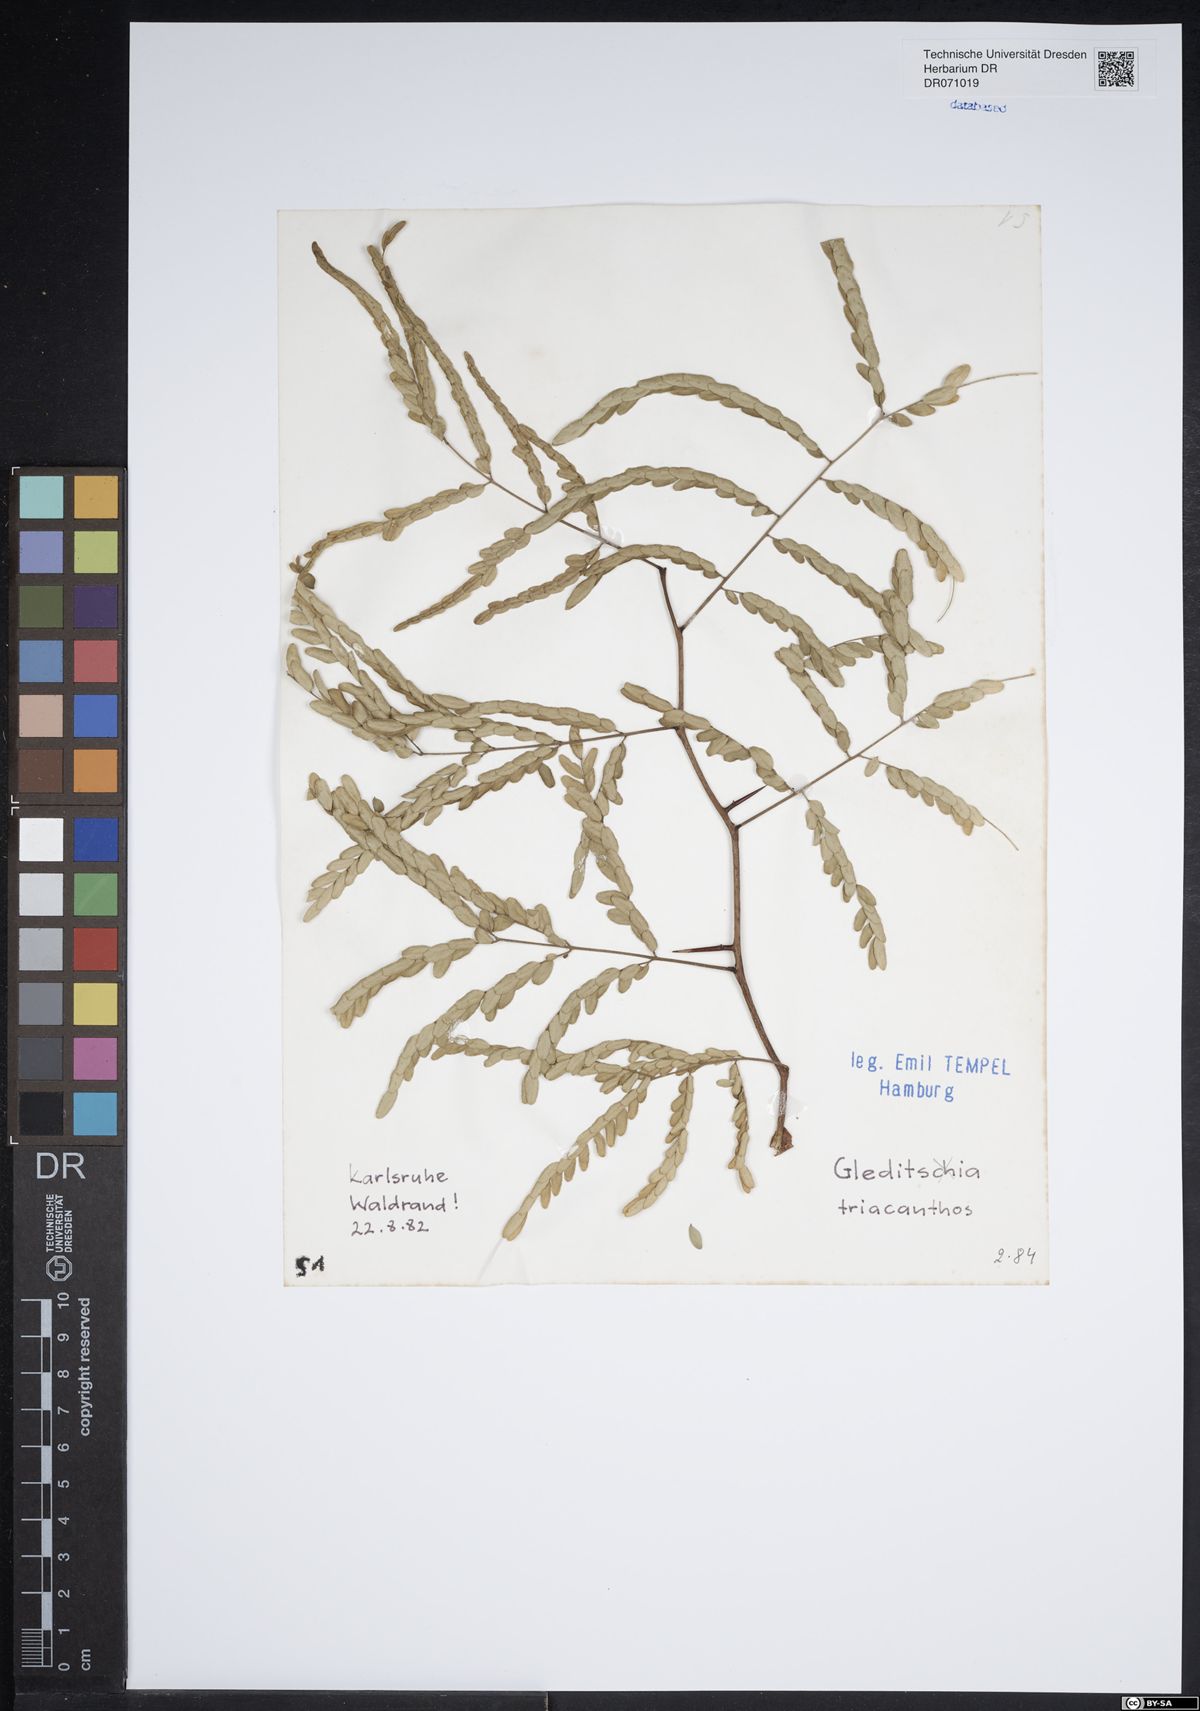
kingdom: Plantae
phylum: Tracheophyta
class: Magnoliopsida
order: Fabales
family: Fabaceae
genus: Gleditsia
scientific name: Gleditsia triacanthos
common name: Common honeylocust
